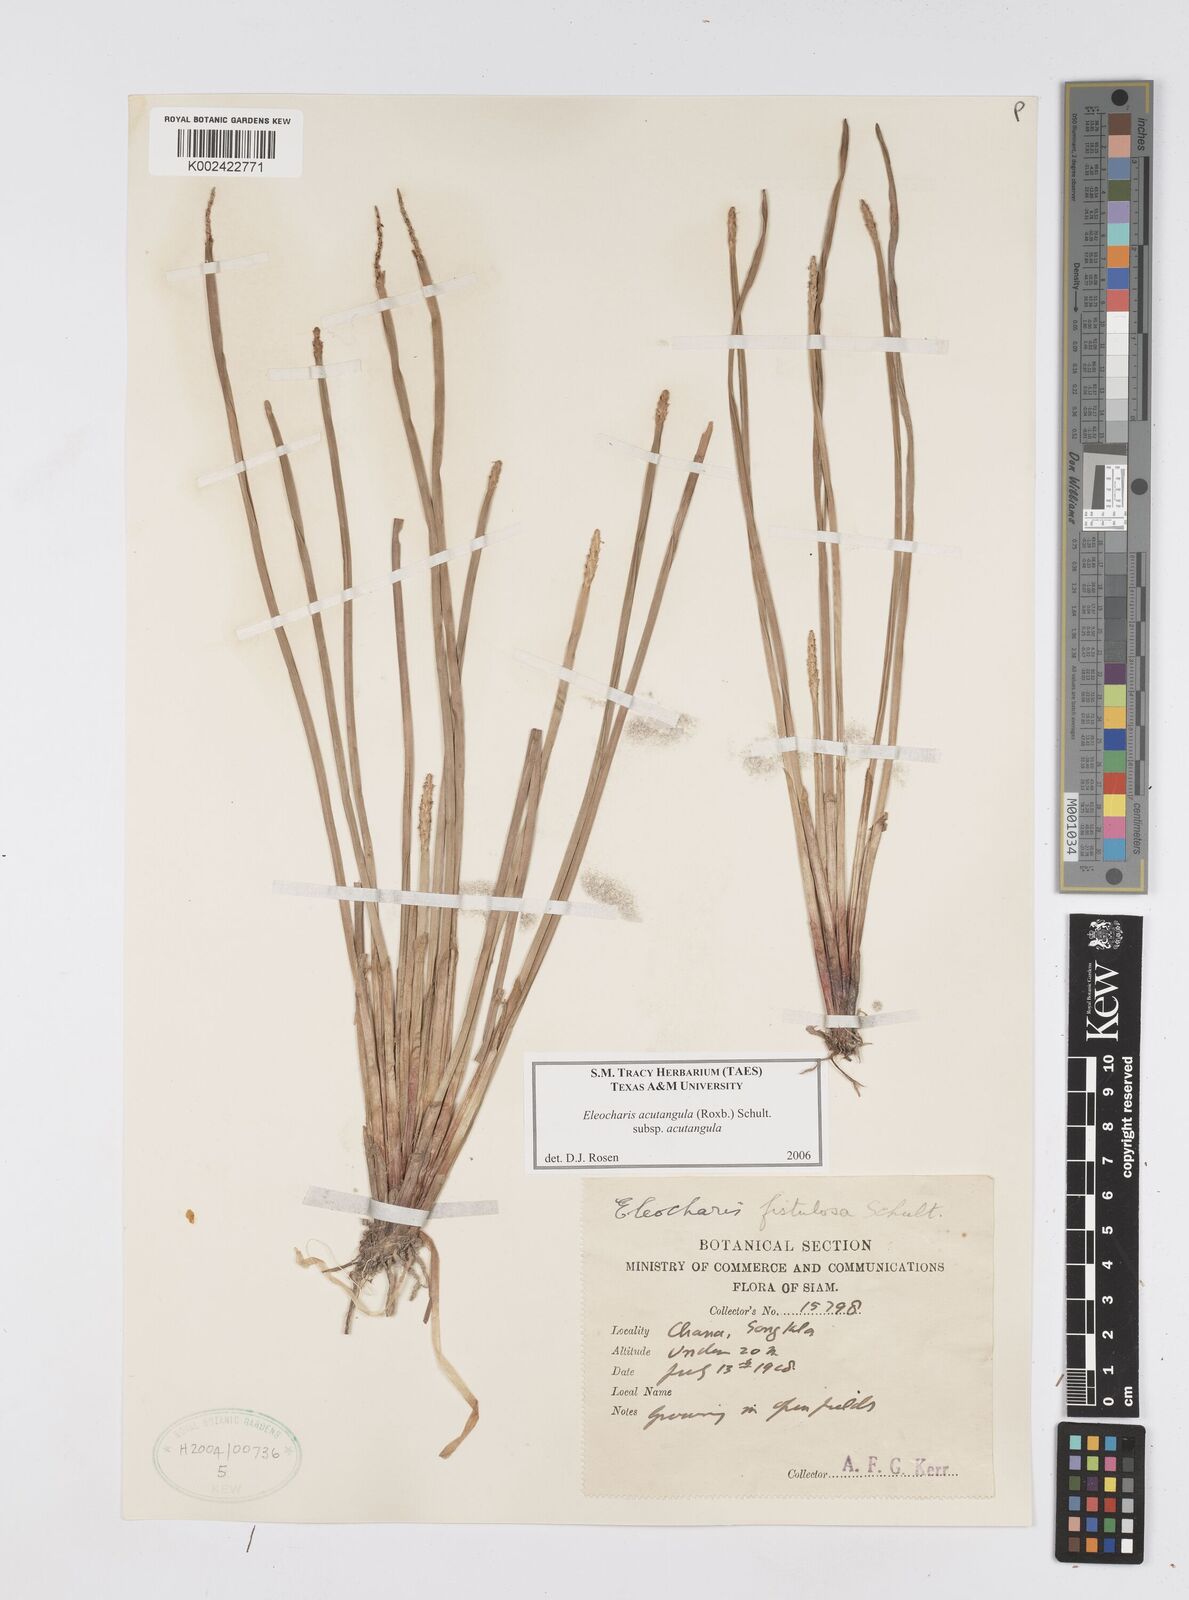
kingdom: Plantae
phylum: Tracheophyta
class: Liliopsida
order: Poales
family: Cyperaceae
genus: Eleocharis
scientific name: Eleocharis acutangula
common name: Acute spikerush
